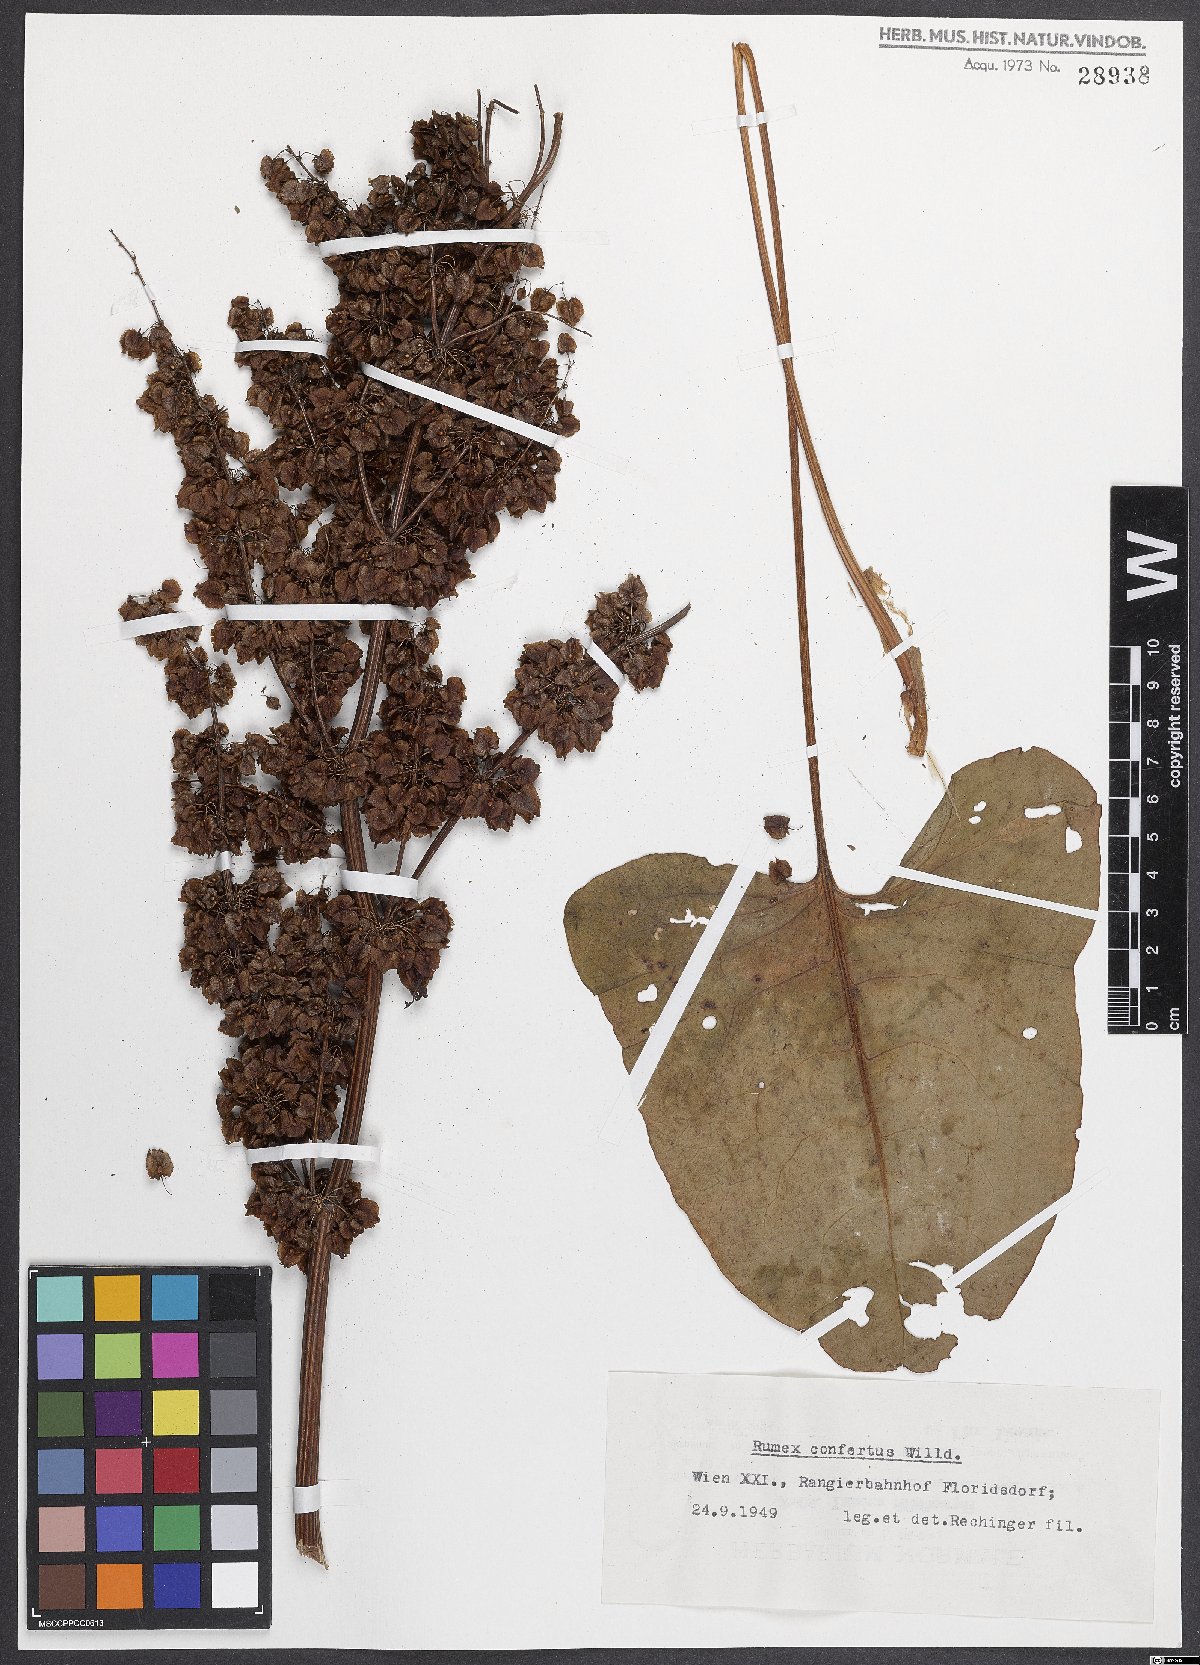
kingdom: Plantae
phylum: Tracheophyta
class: Magnoliopsida
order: Caryophyllales
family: Polygonaceae
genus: Rumex
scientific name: Rumex confertus
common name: Russian dock
